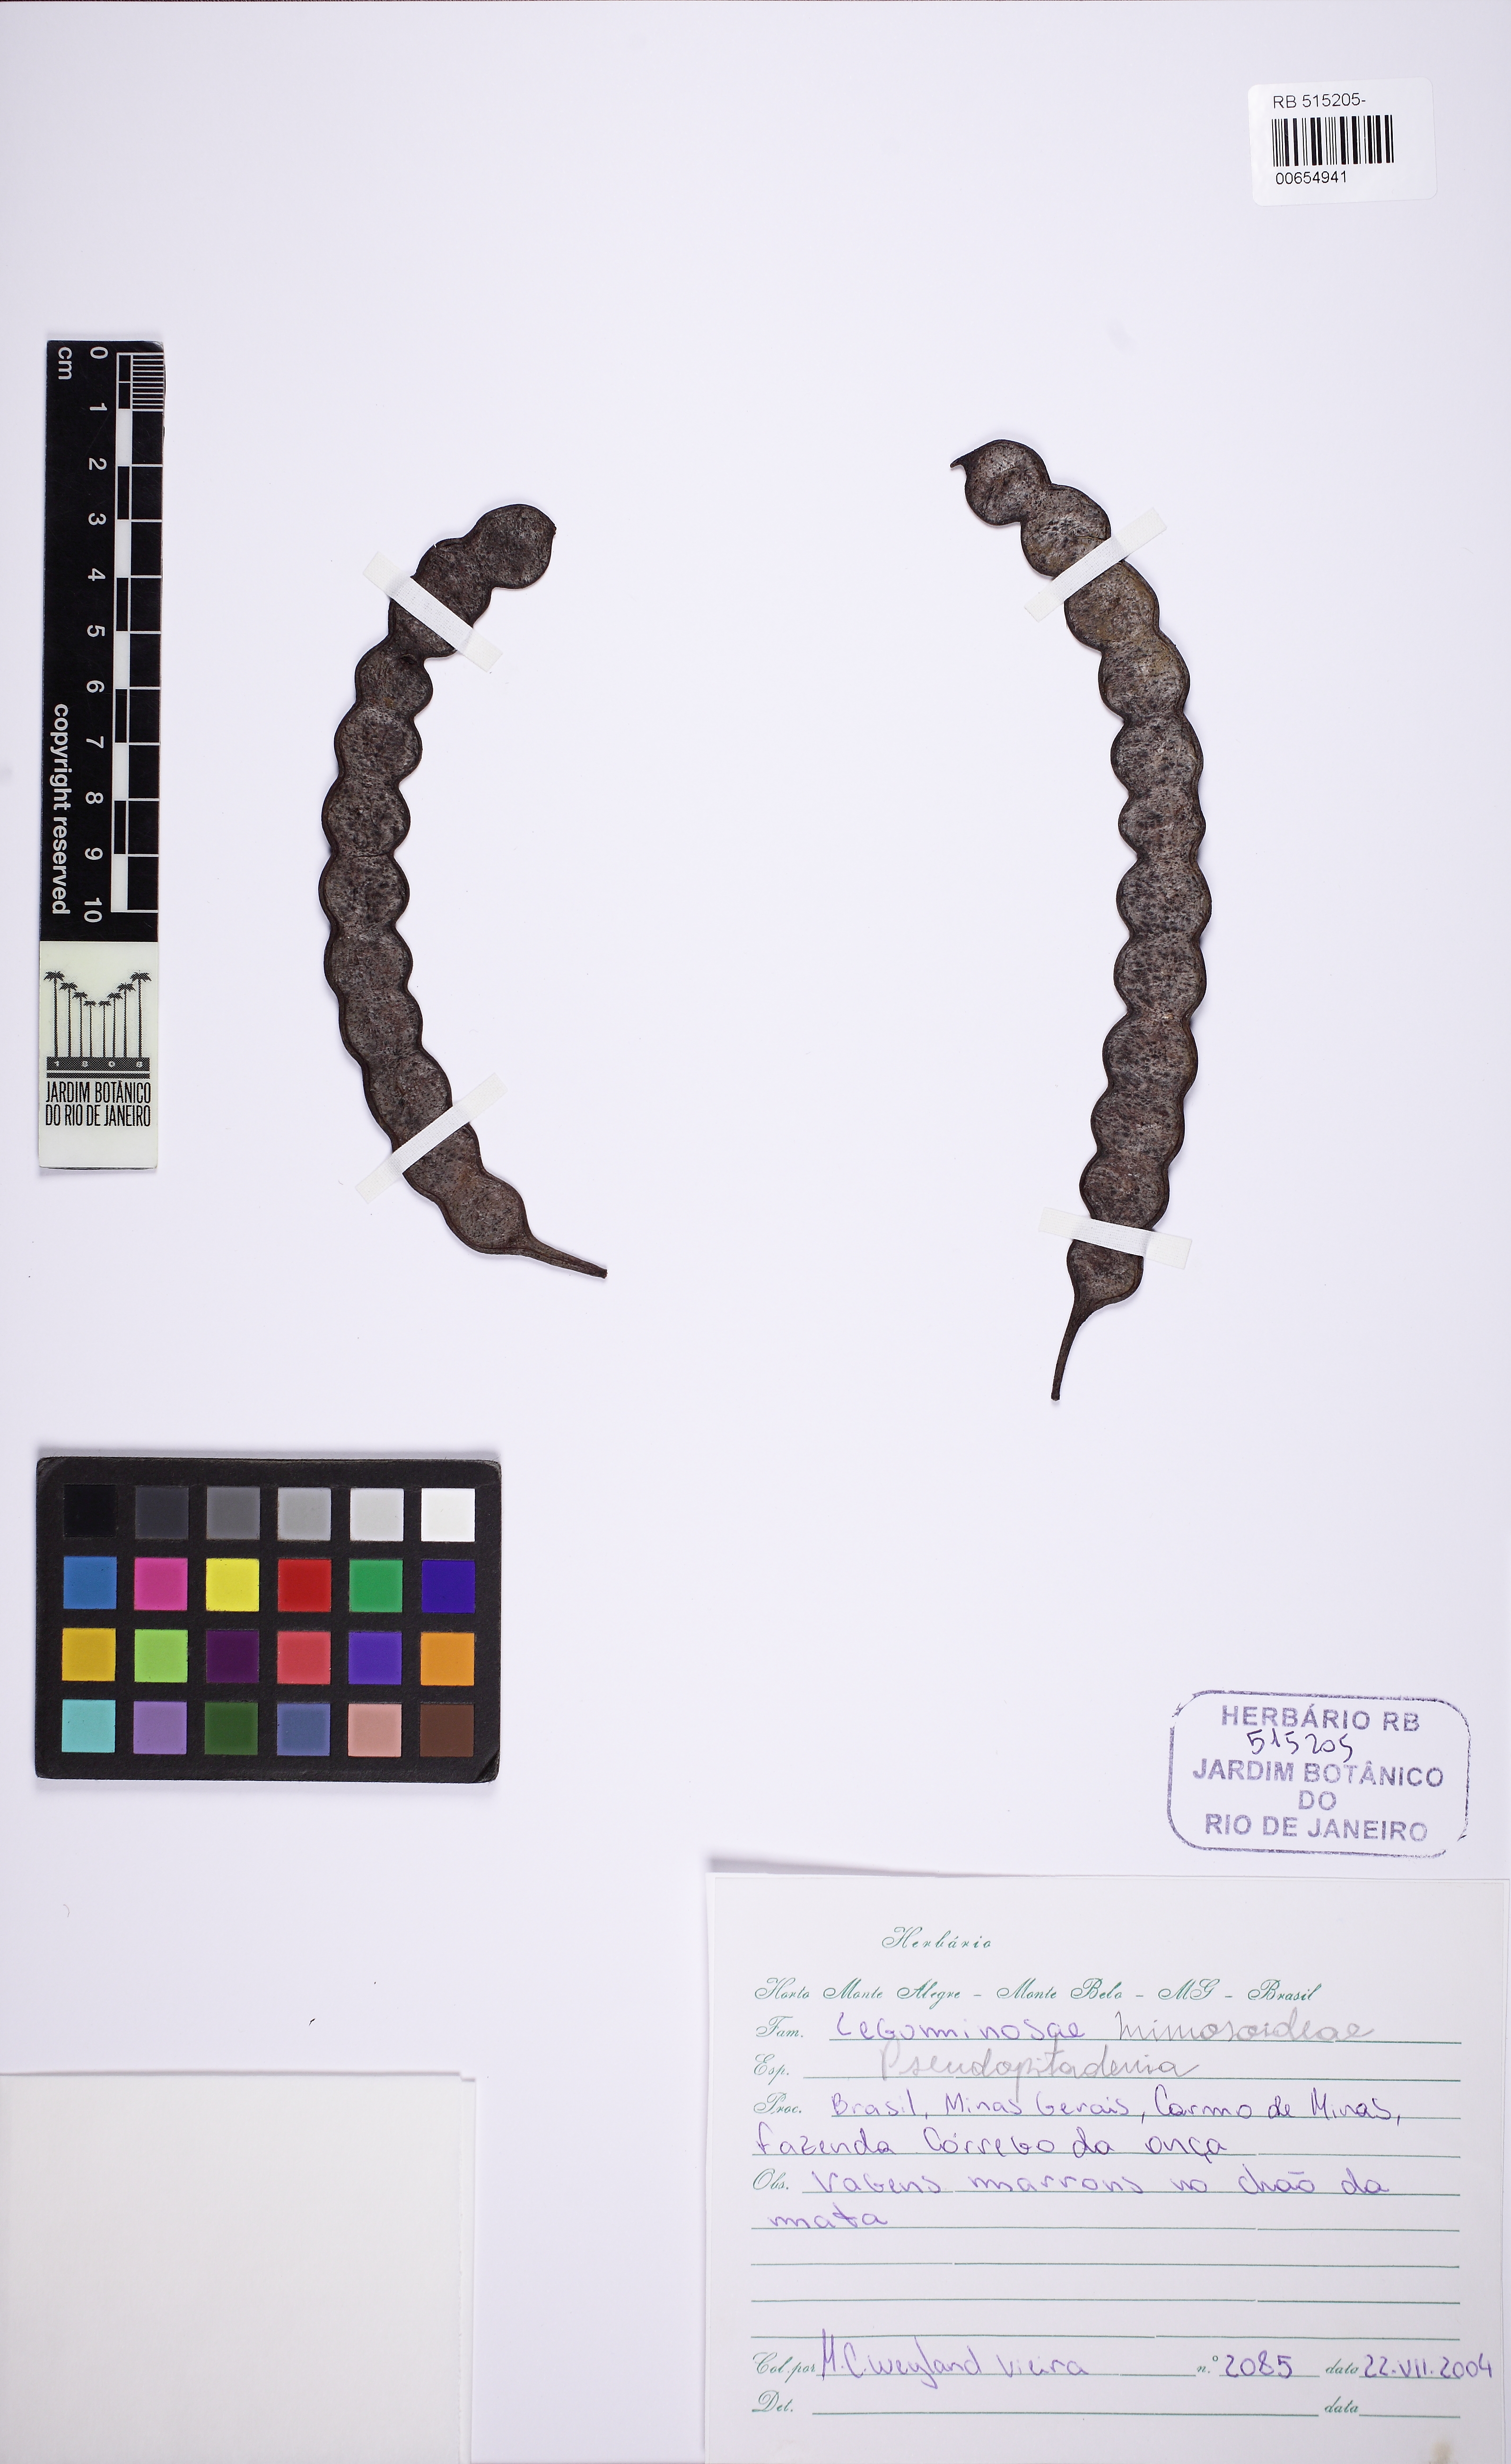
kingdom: Plantae
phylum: Tracheophyta
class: Magnoliopsida
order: Fabales
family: Fabaceae
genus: Anadenanthera
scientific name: Anadenanthera colubrina
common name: Curupay
